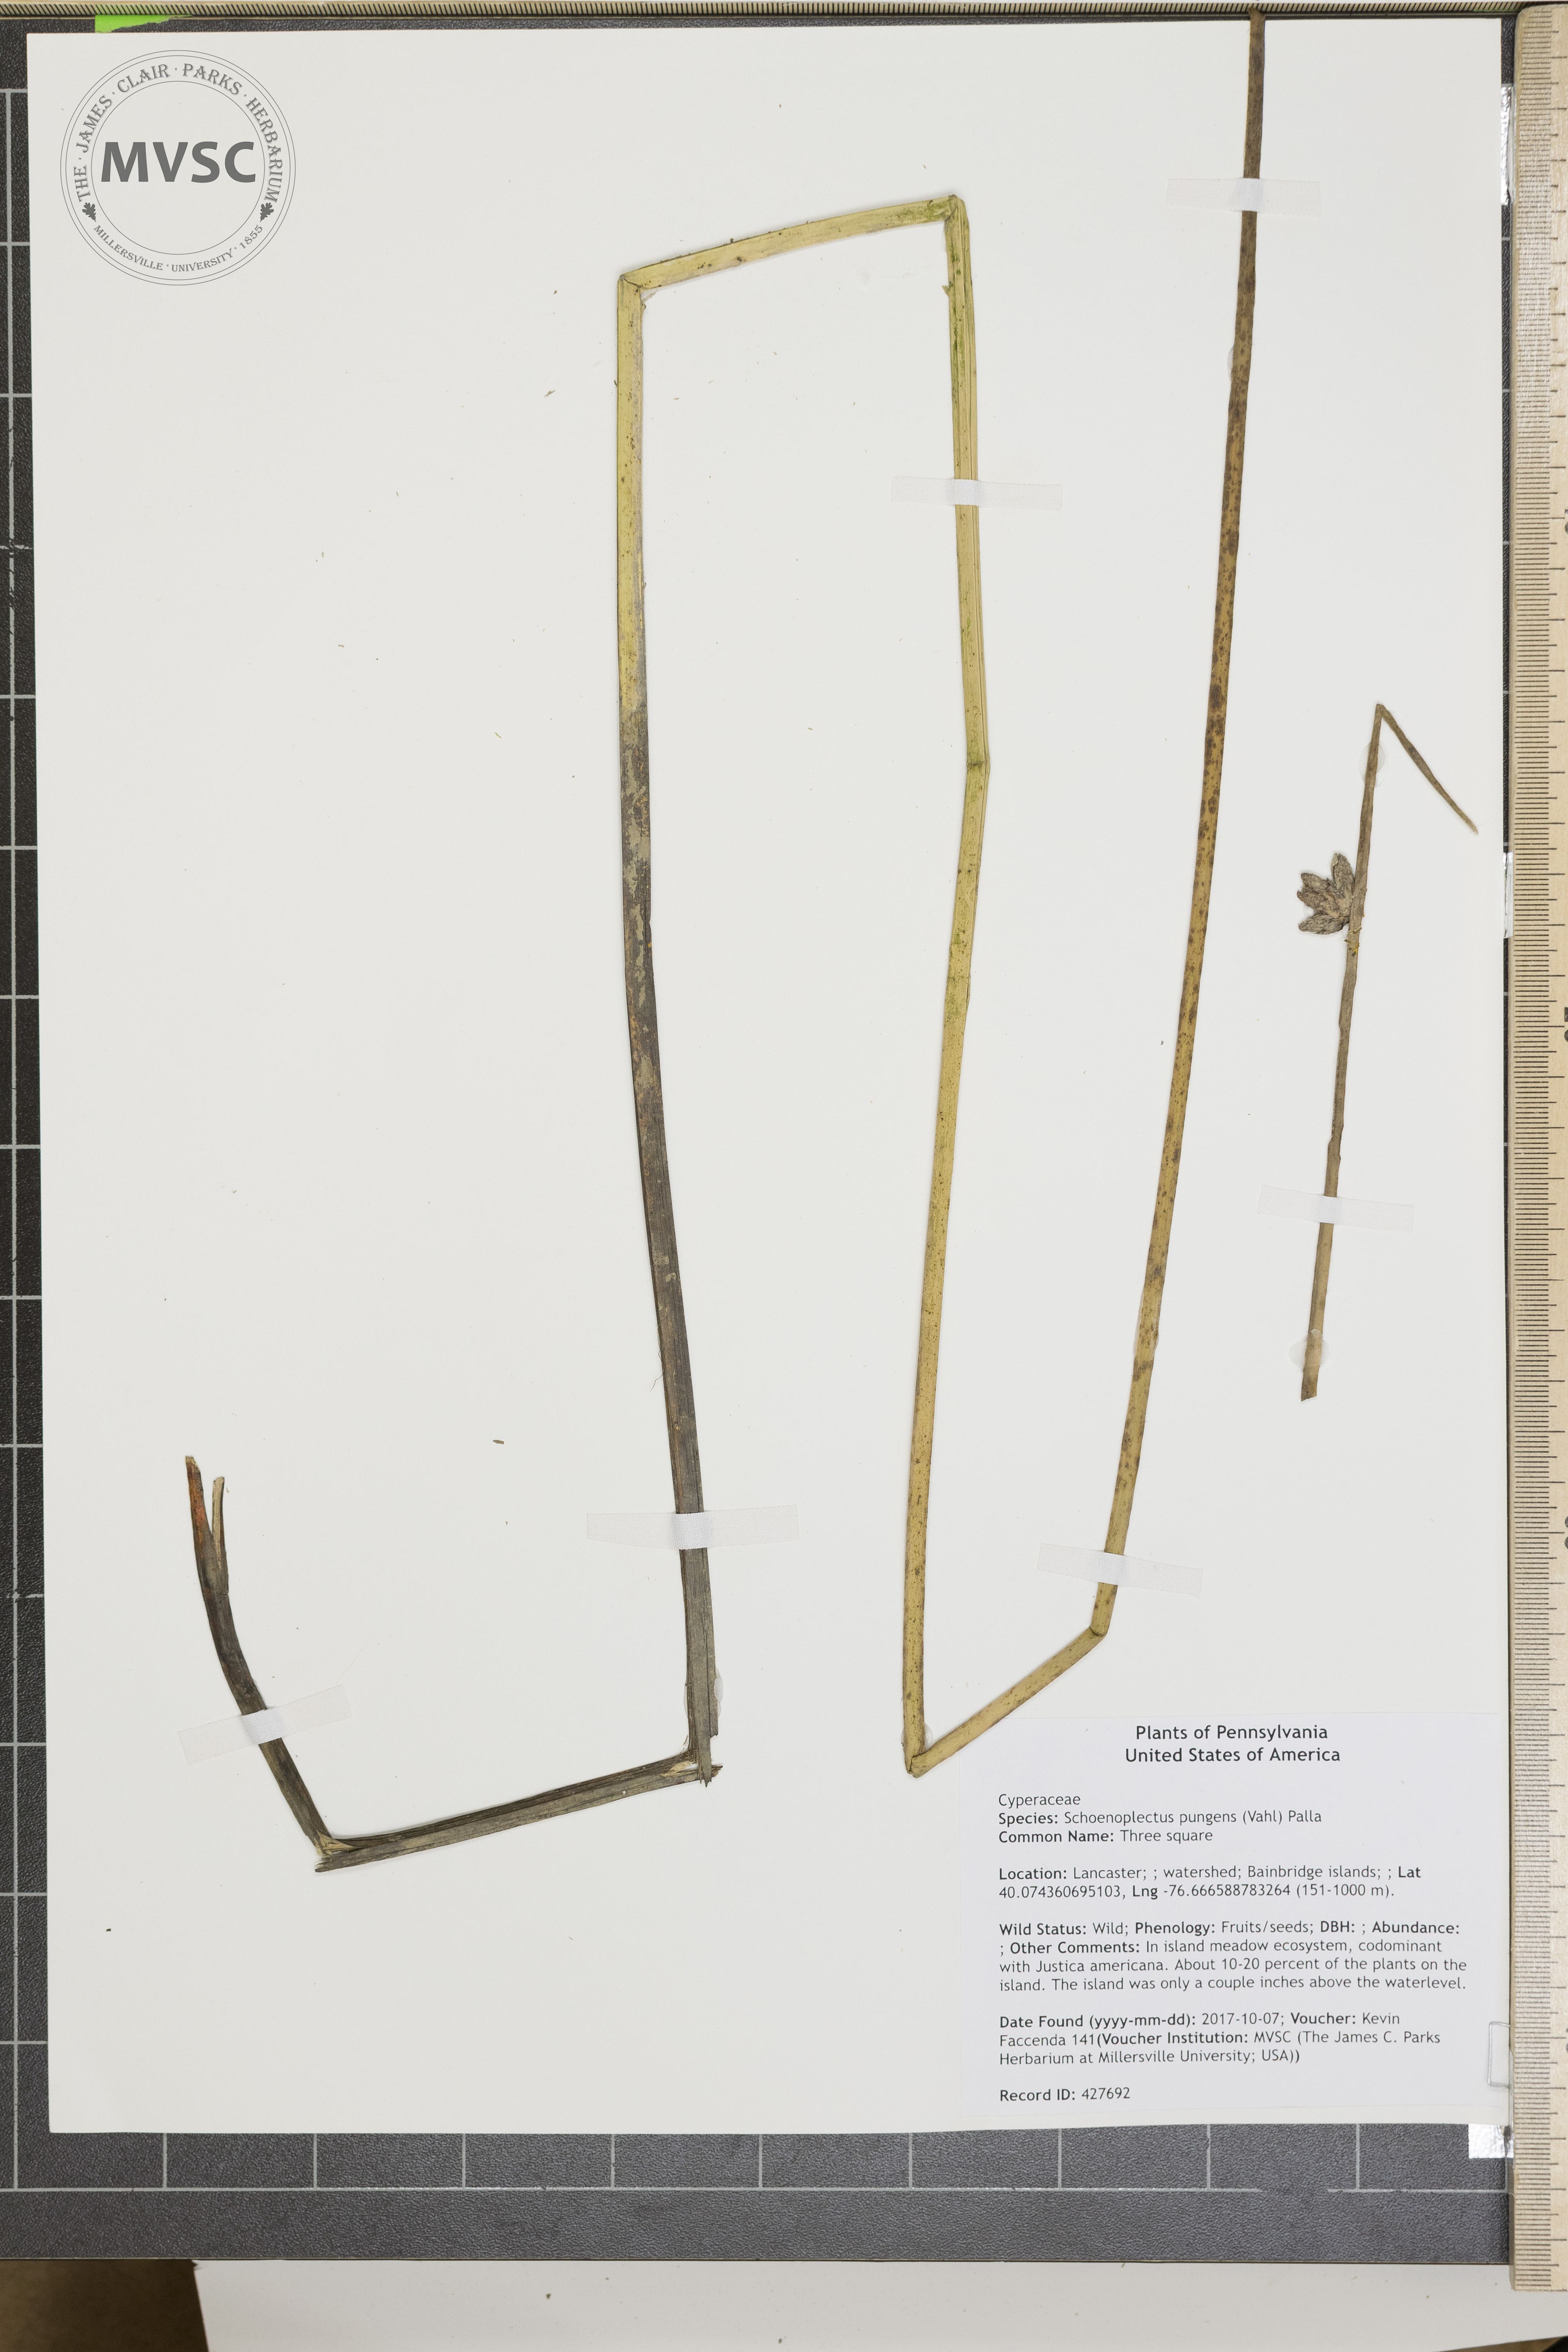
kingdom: Plantae
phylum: Tracheophyta
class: Liliopsida
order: Poales
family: Cyperaceae
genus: Schoenoplectus
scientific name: Schoenoplectus pungens
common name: Three square
